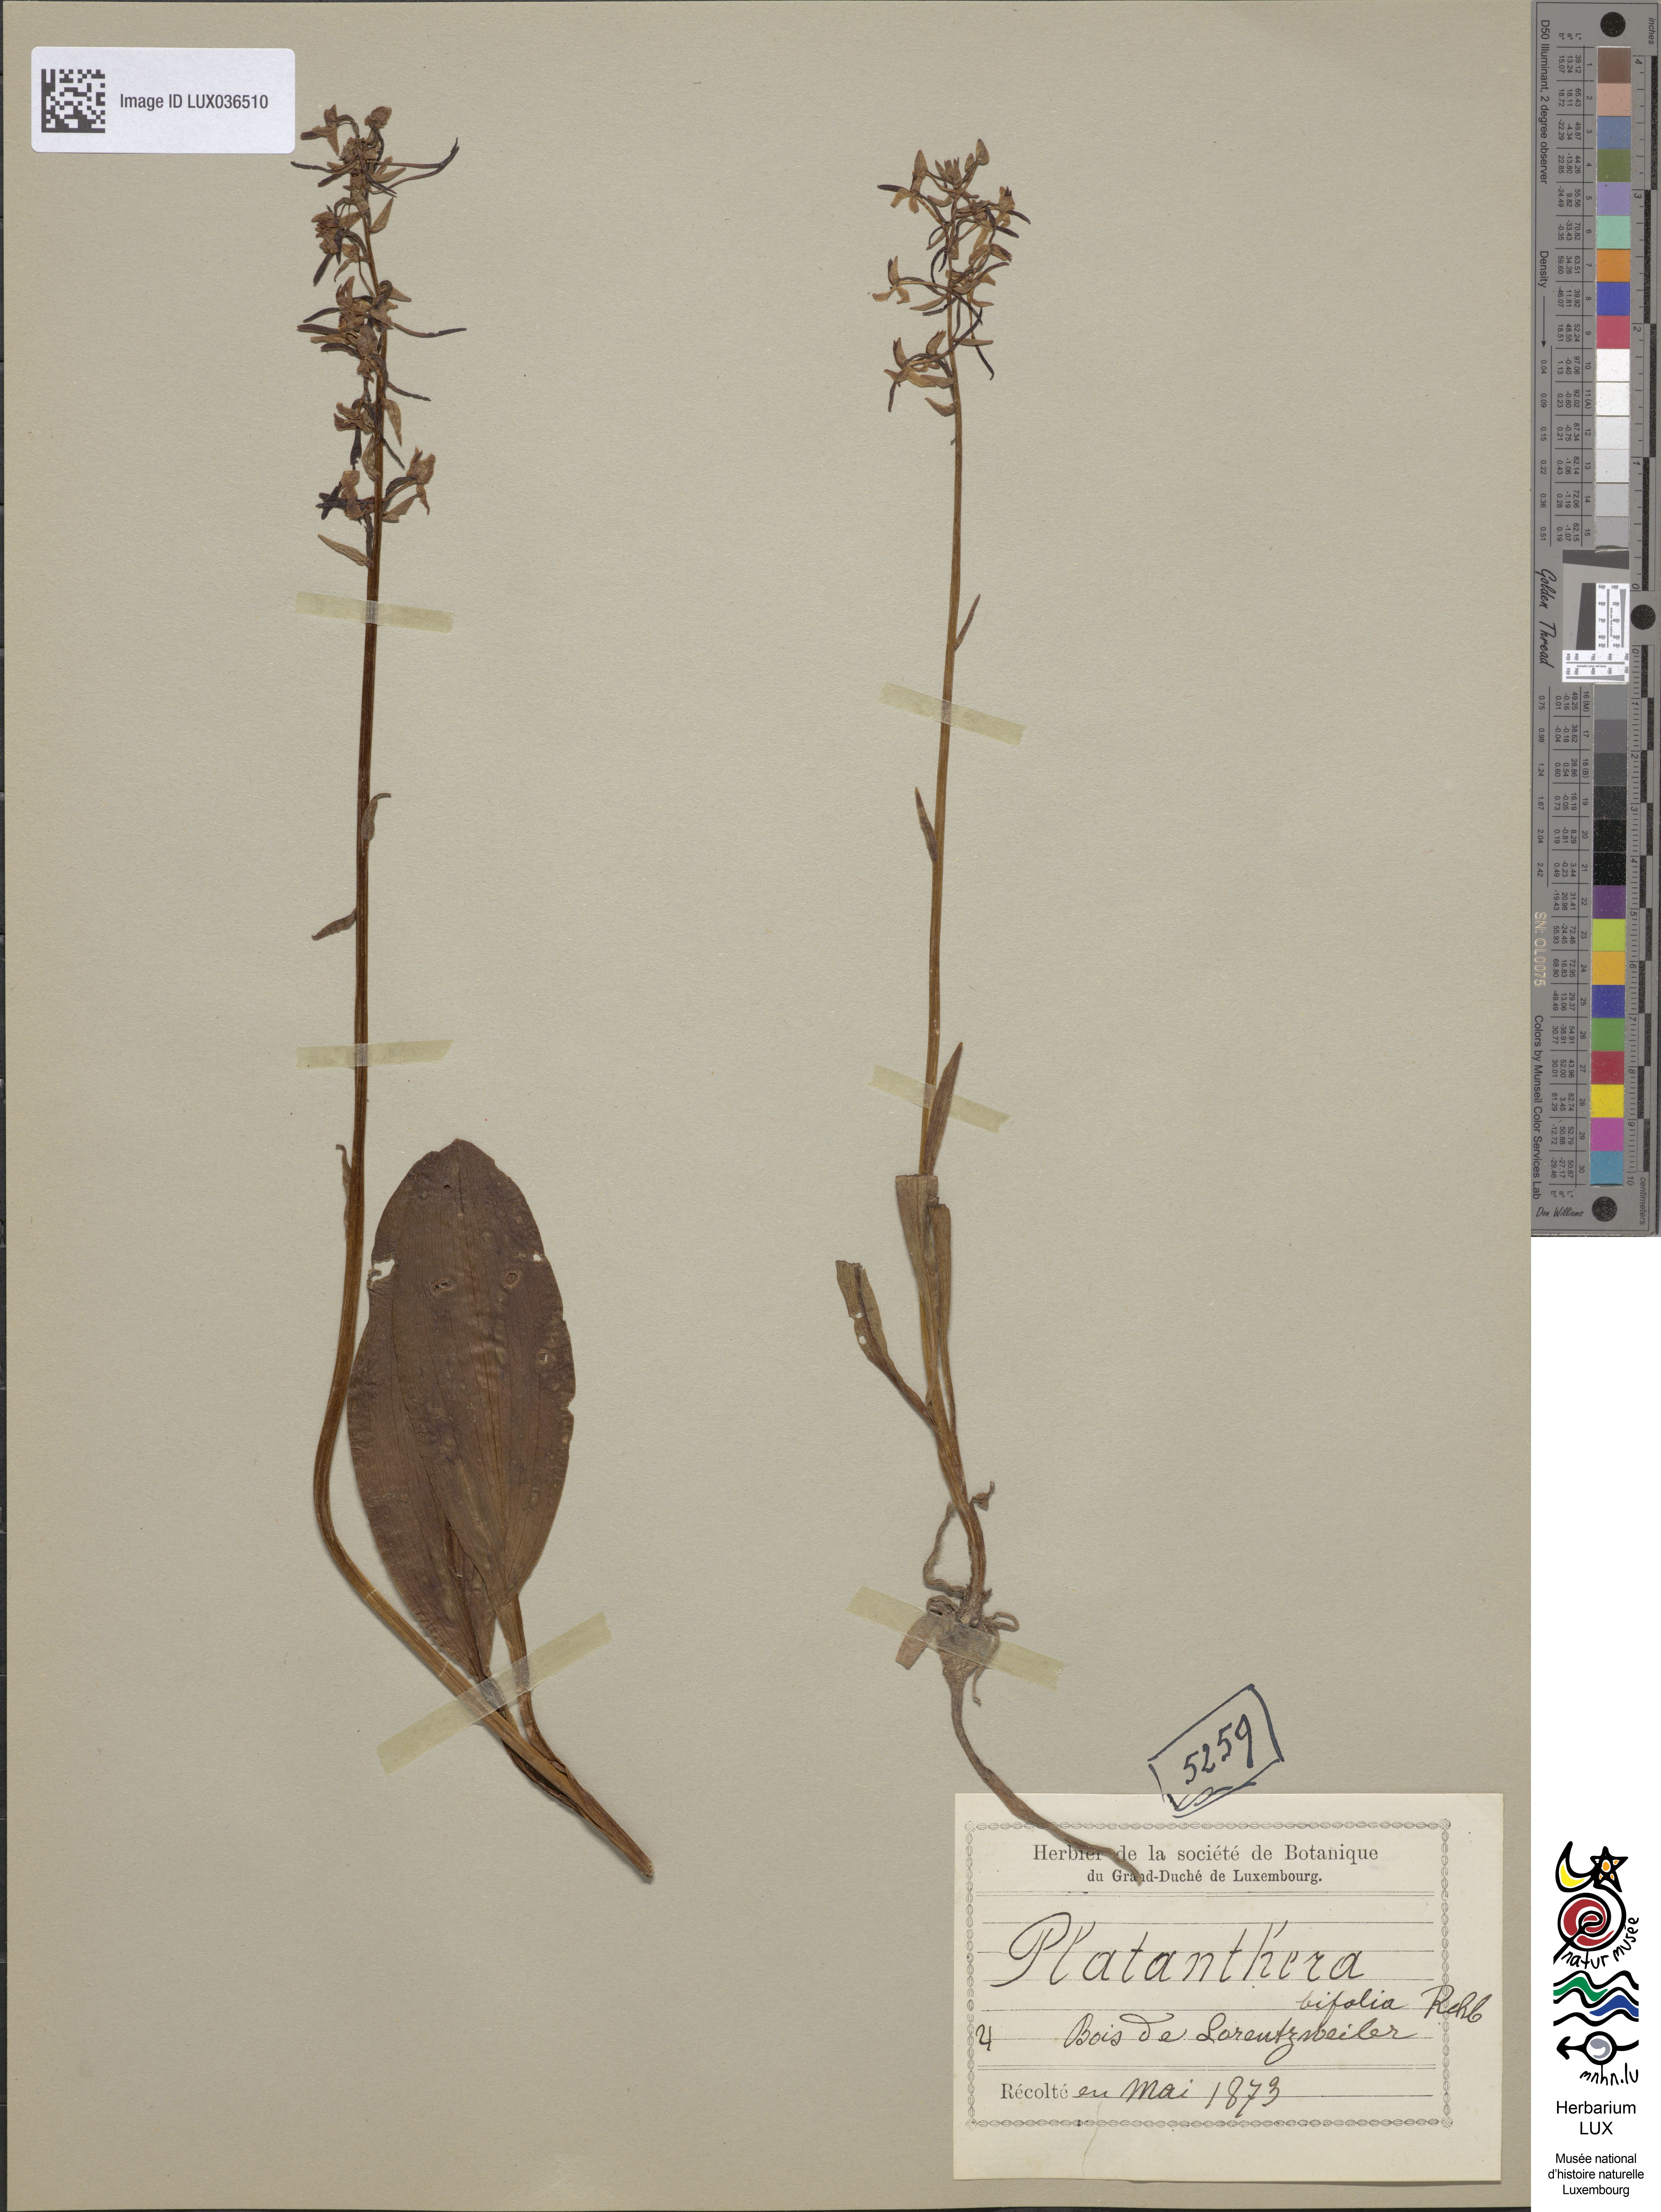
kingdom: Plantae
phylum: Tracheophyta
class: Liliopsida
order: Asparagales
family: Orchidaceae
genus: Platanthera
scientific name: Platanthera bifolia
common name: Lesser butterfly-orchid
